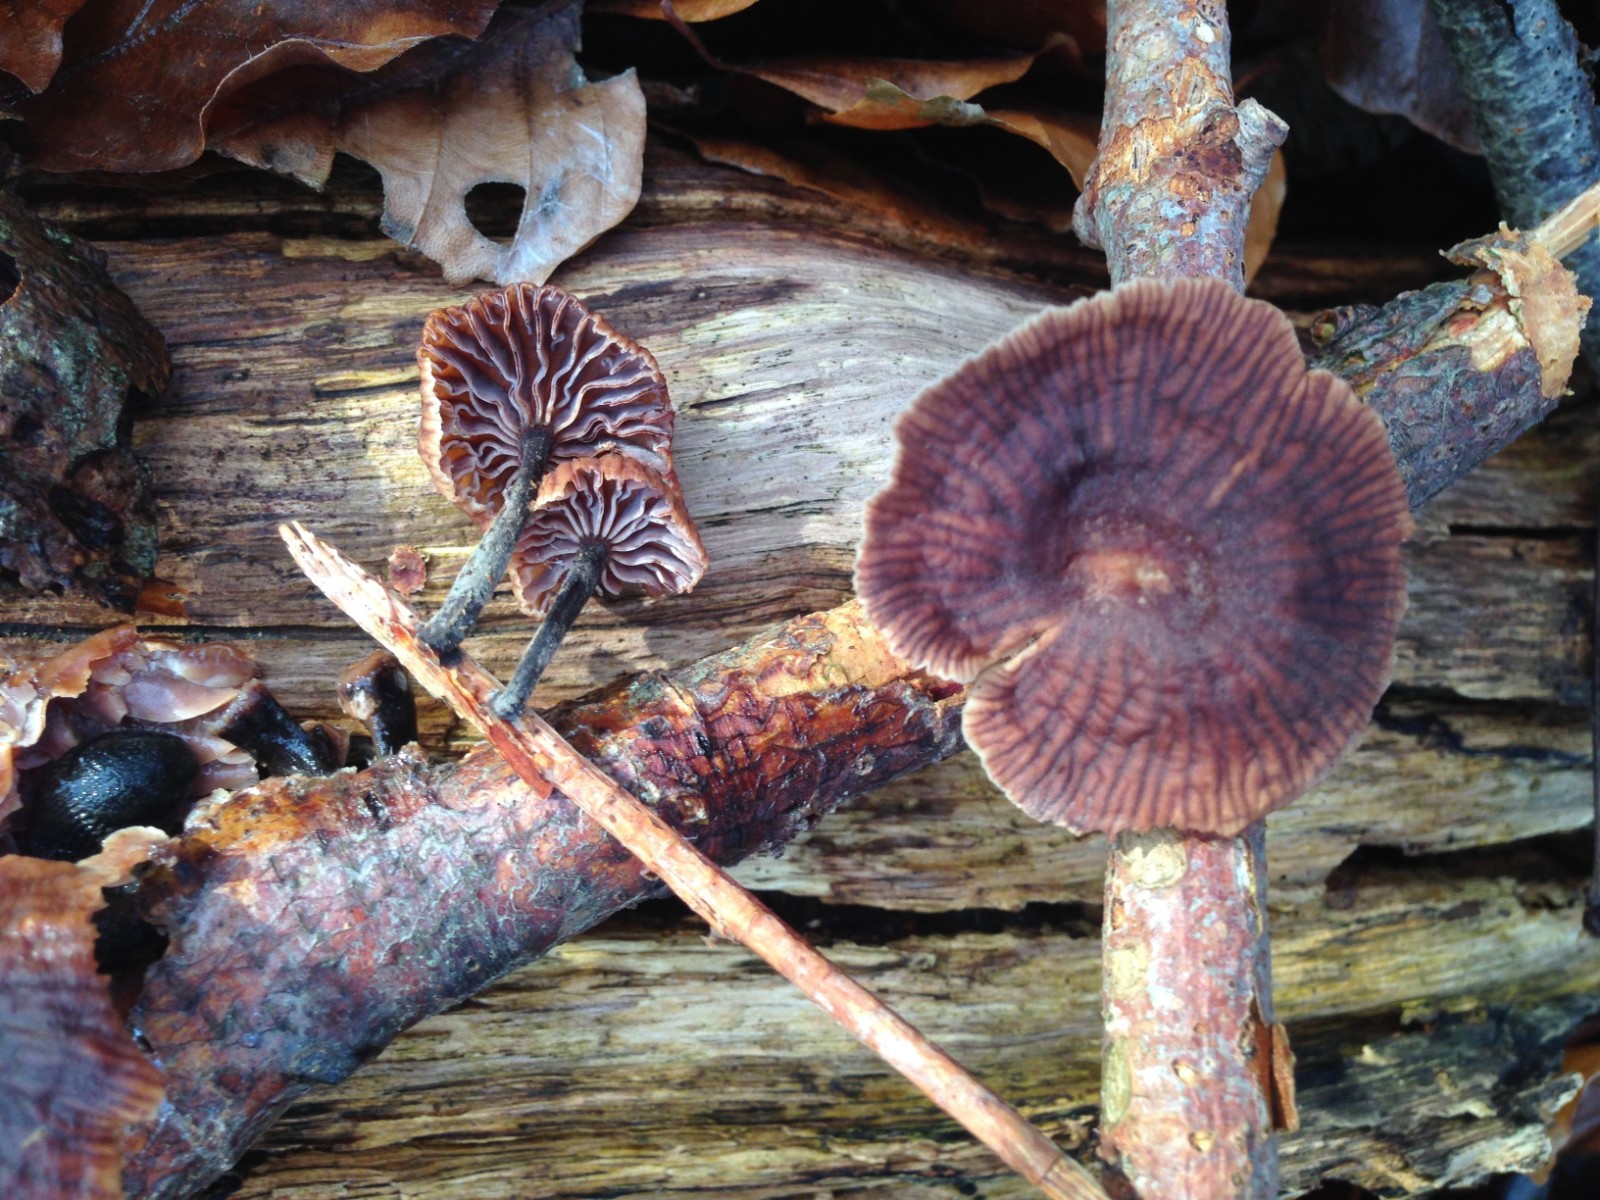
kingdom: Fungi
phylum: Basidiomycota
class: Agaricomycetes
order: Agaricales
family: Omphalotaceae
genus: Gymnopus
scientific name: Gymnopus foetidus
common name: stinkende fladhat
